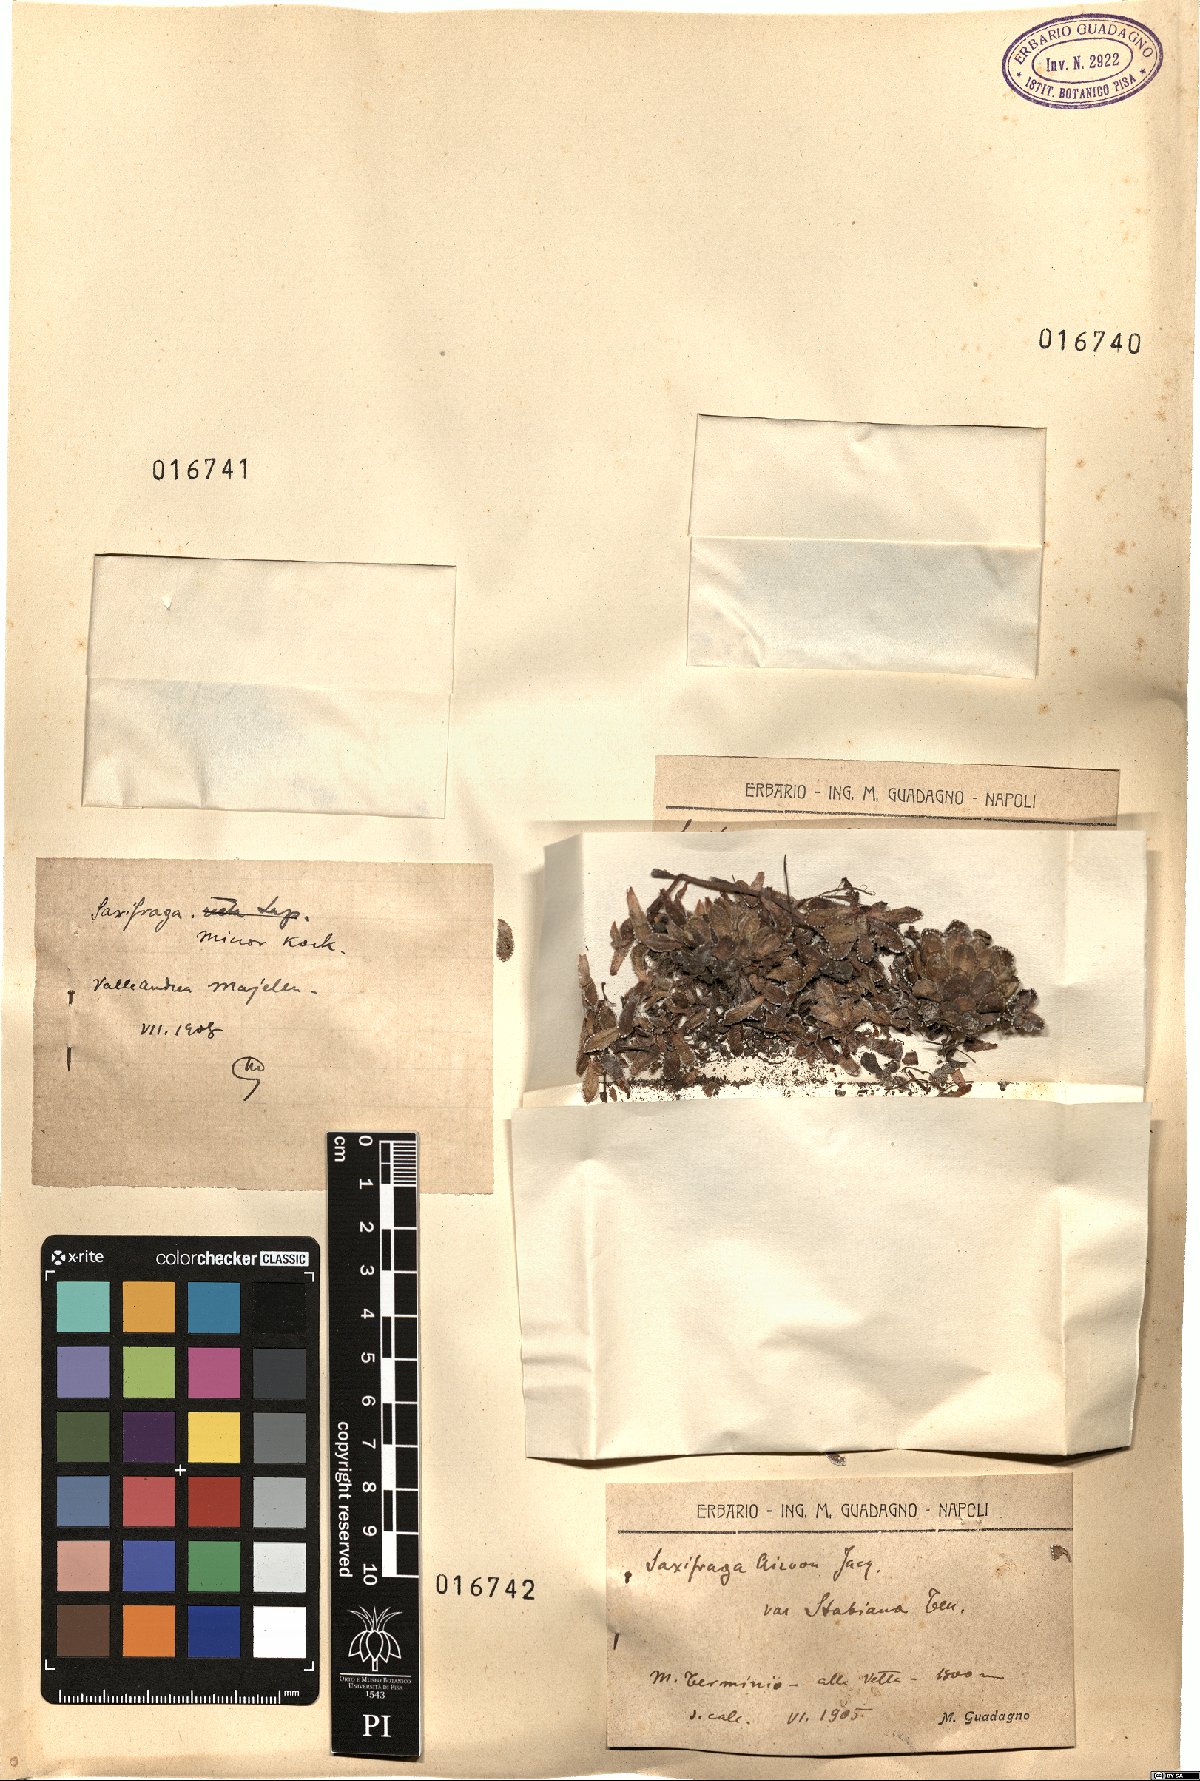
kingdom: Plantae
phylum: Tracheophyta
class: Magnoliopsida
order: Saxifragales
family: Saxifragaceae
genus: Saxifraga
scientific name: Saxifraga paniculata
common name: Livelong saxifrage
